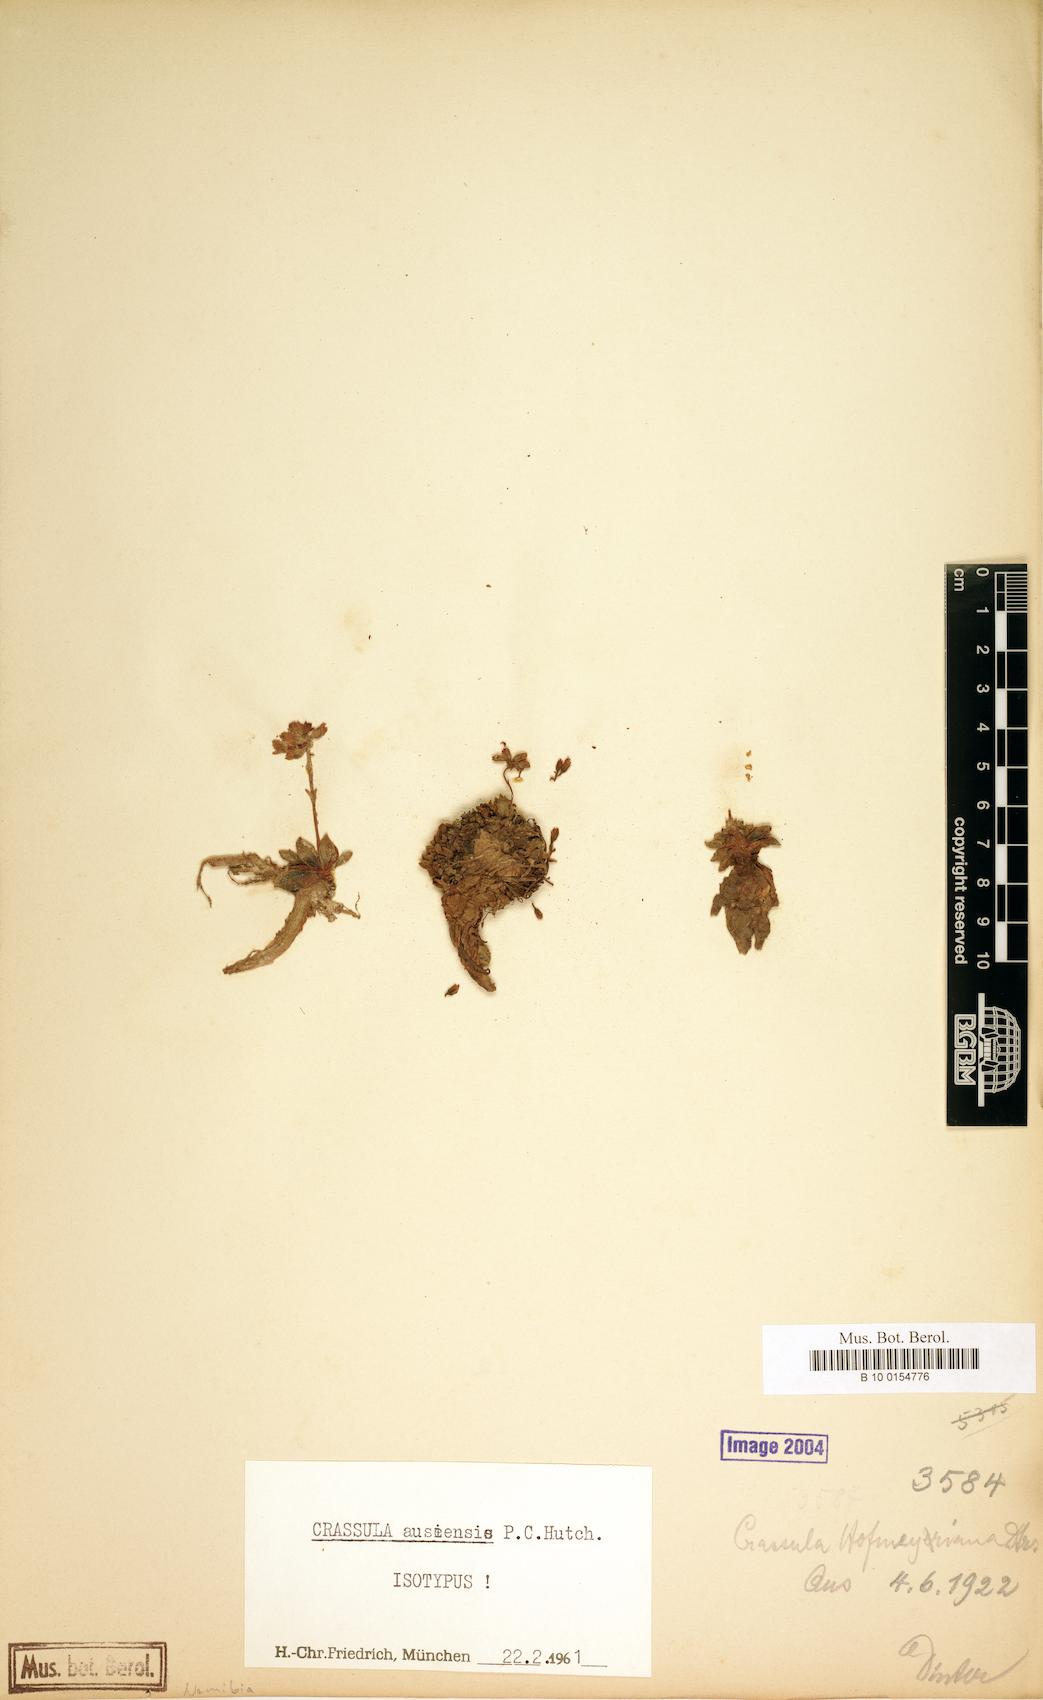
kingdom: Plantae
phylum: Tracheophyta
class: Magnoliopsida
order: Saxifragales
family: Crassulaceae
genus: Crassula
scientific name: Crassula ausensis
